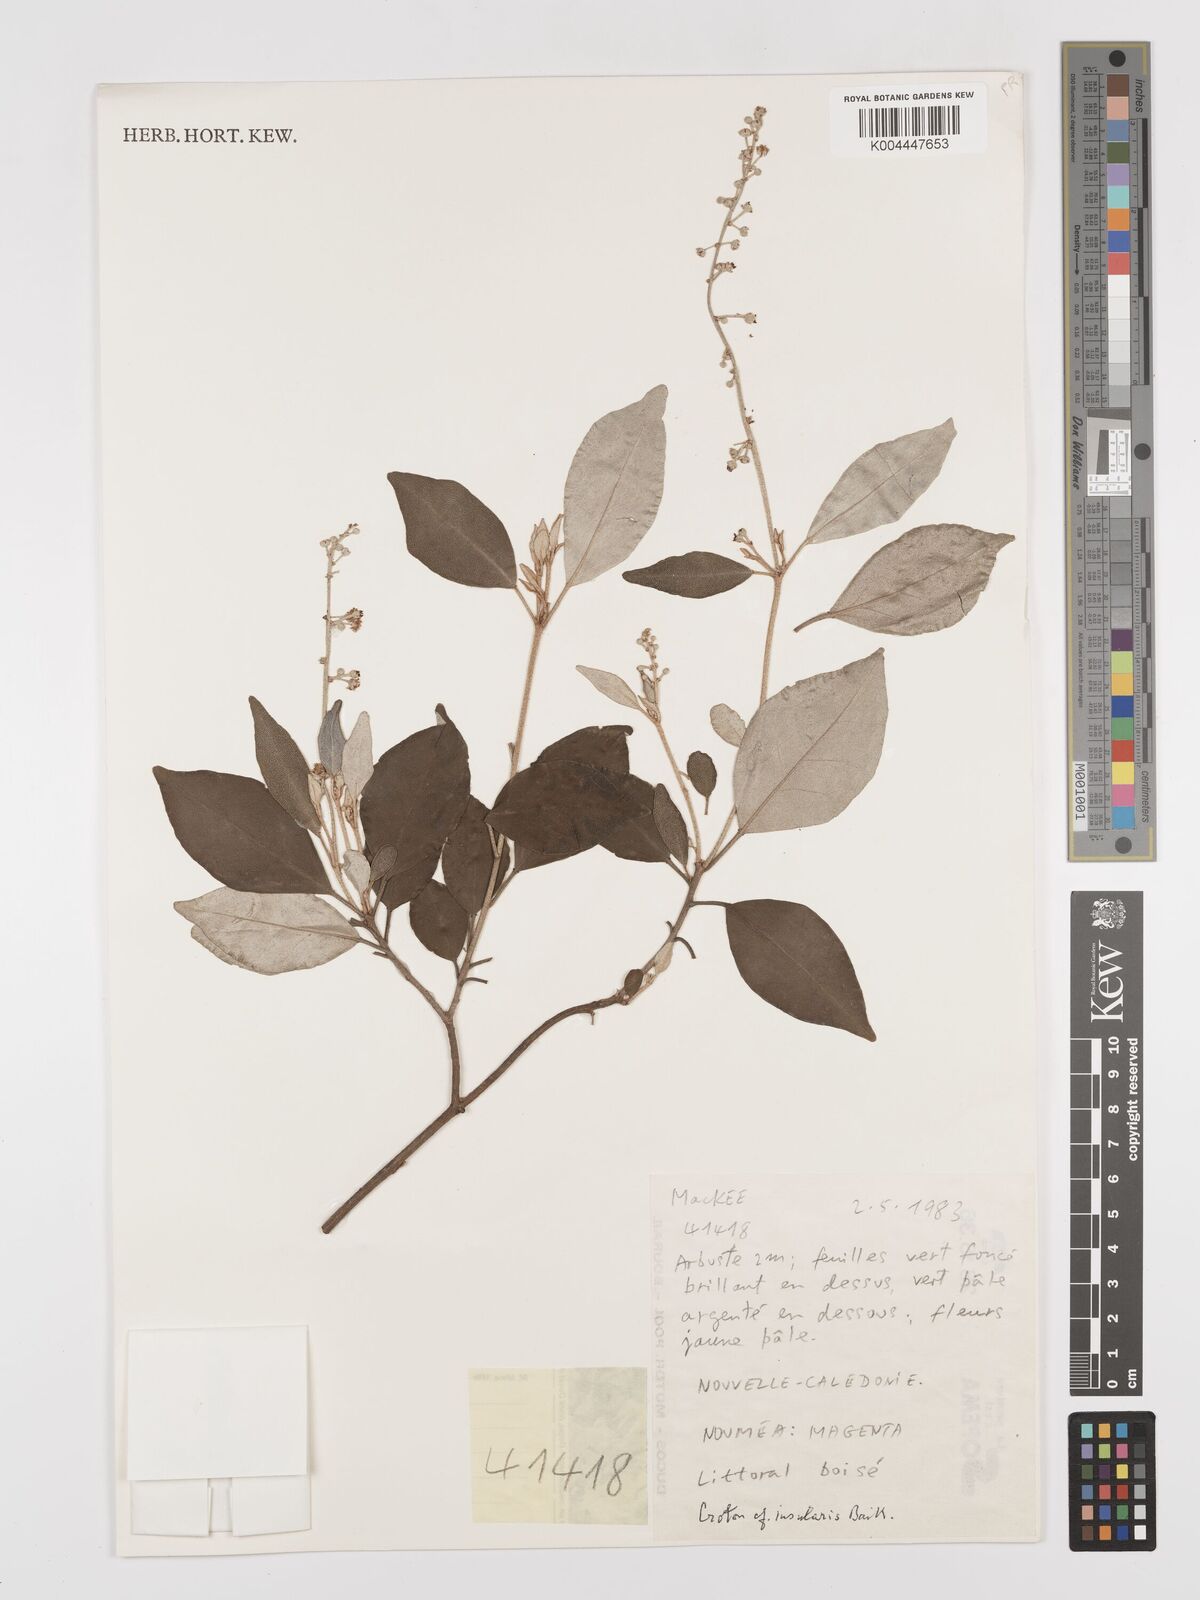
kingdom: Plantae
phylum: Tracheophyta
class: Magnoliopsida
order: Malpighiales
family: Euphorbiaceae
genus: Croton
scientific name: Croton insularis
